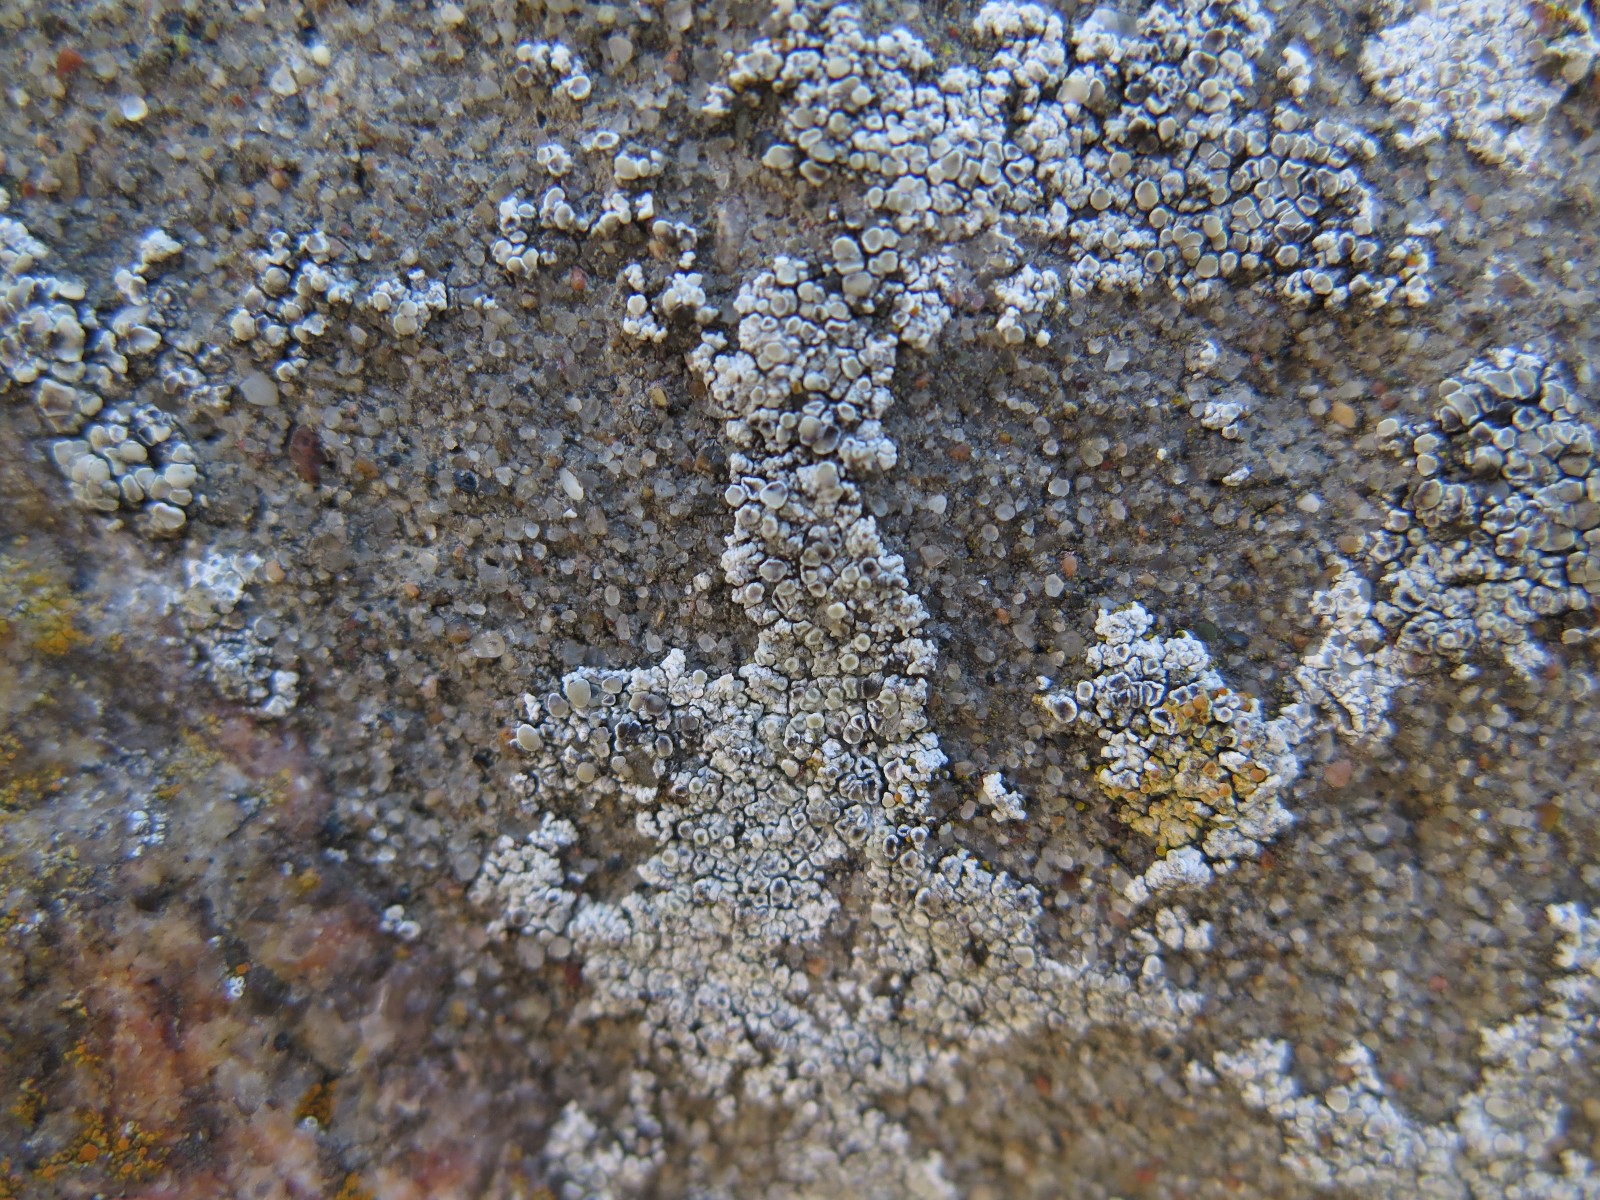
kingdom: Fungi
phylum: Ascomycota
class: Lecanoromycetes
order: Lecanorales
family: Lecanoraceae
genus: Polyozosia
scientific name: Polyozosia albescens
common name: cement-kantskivelav
